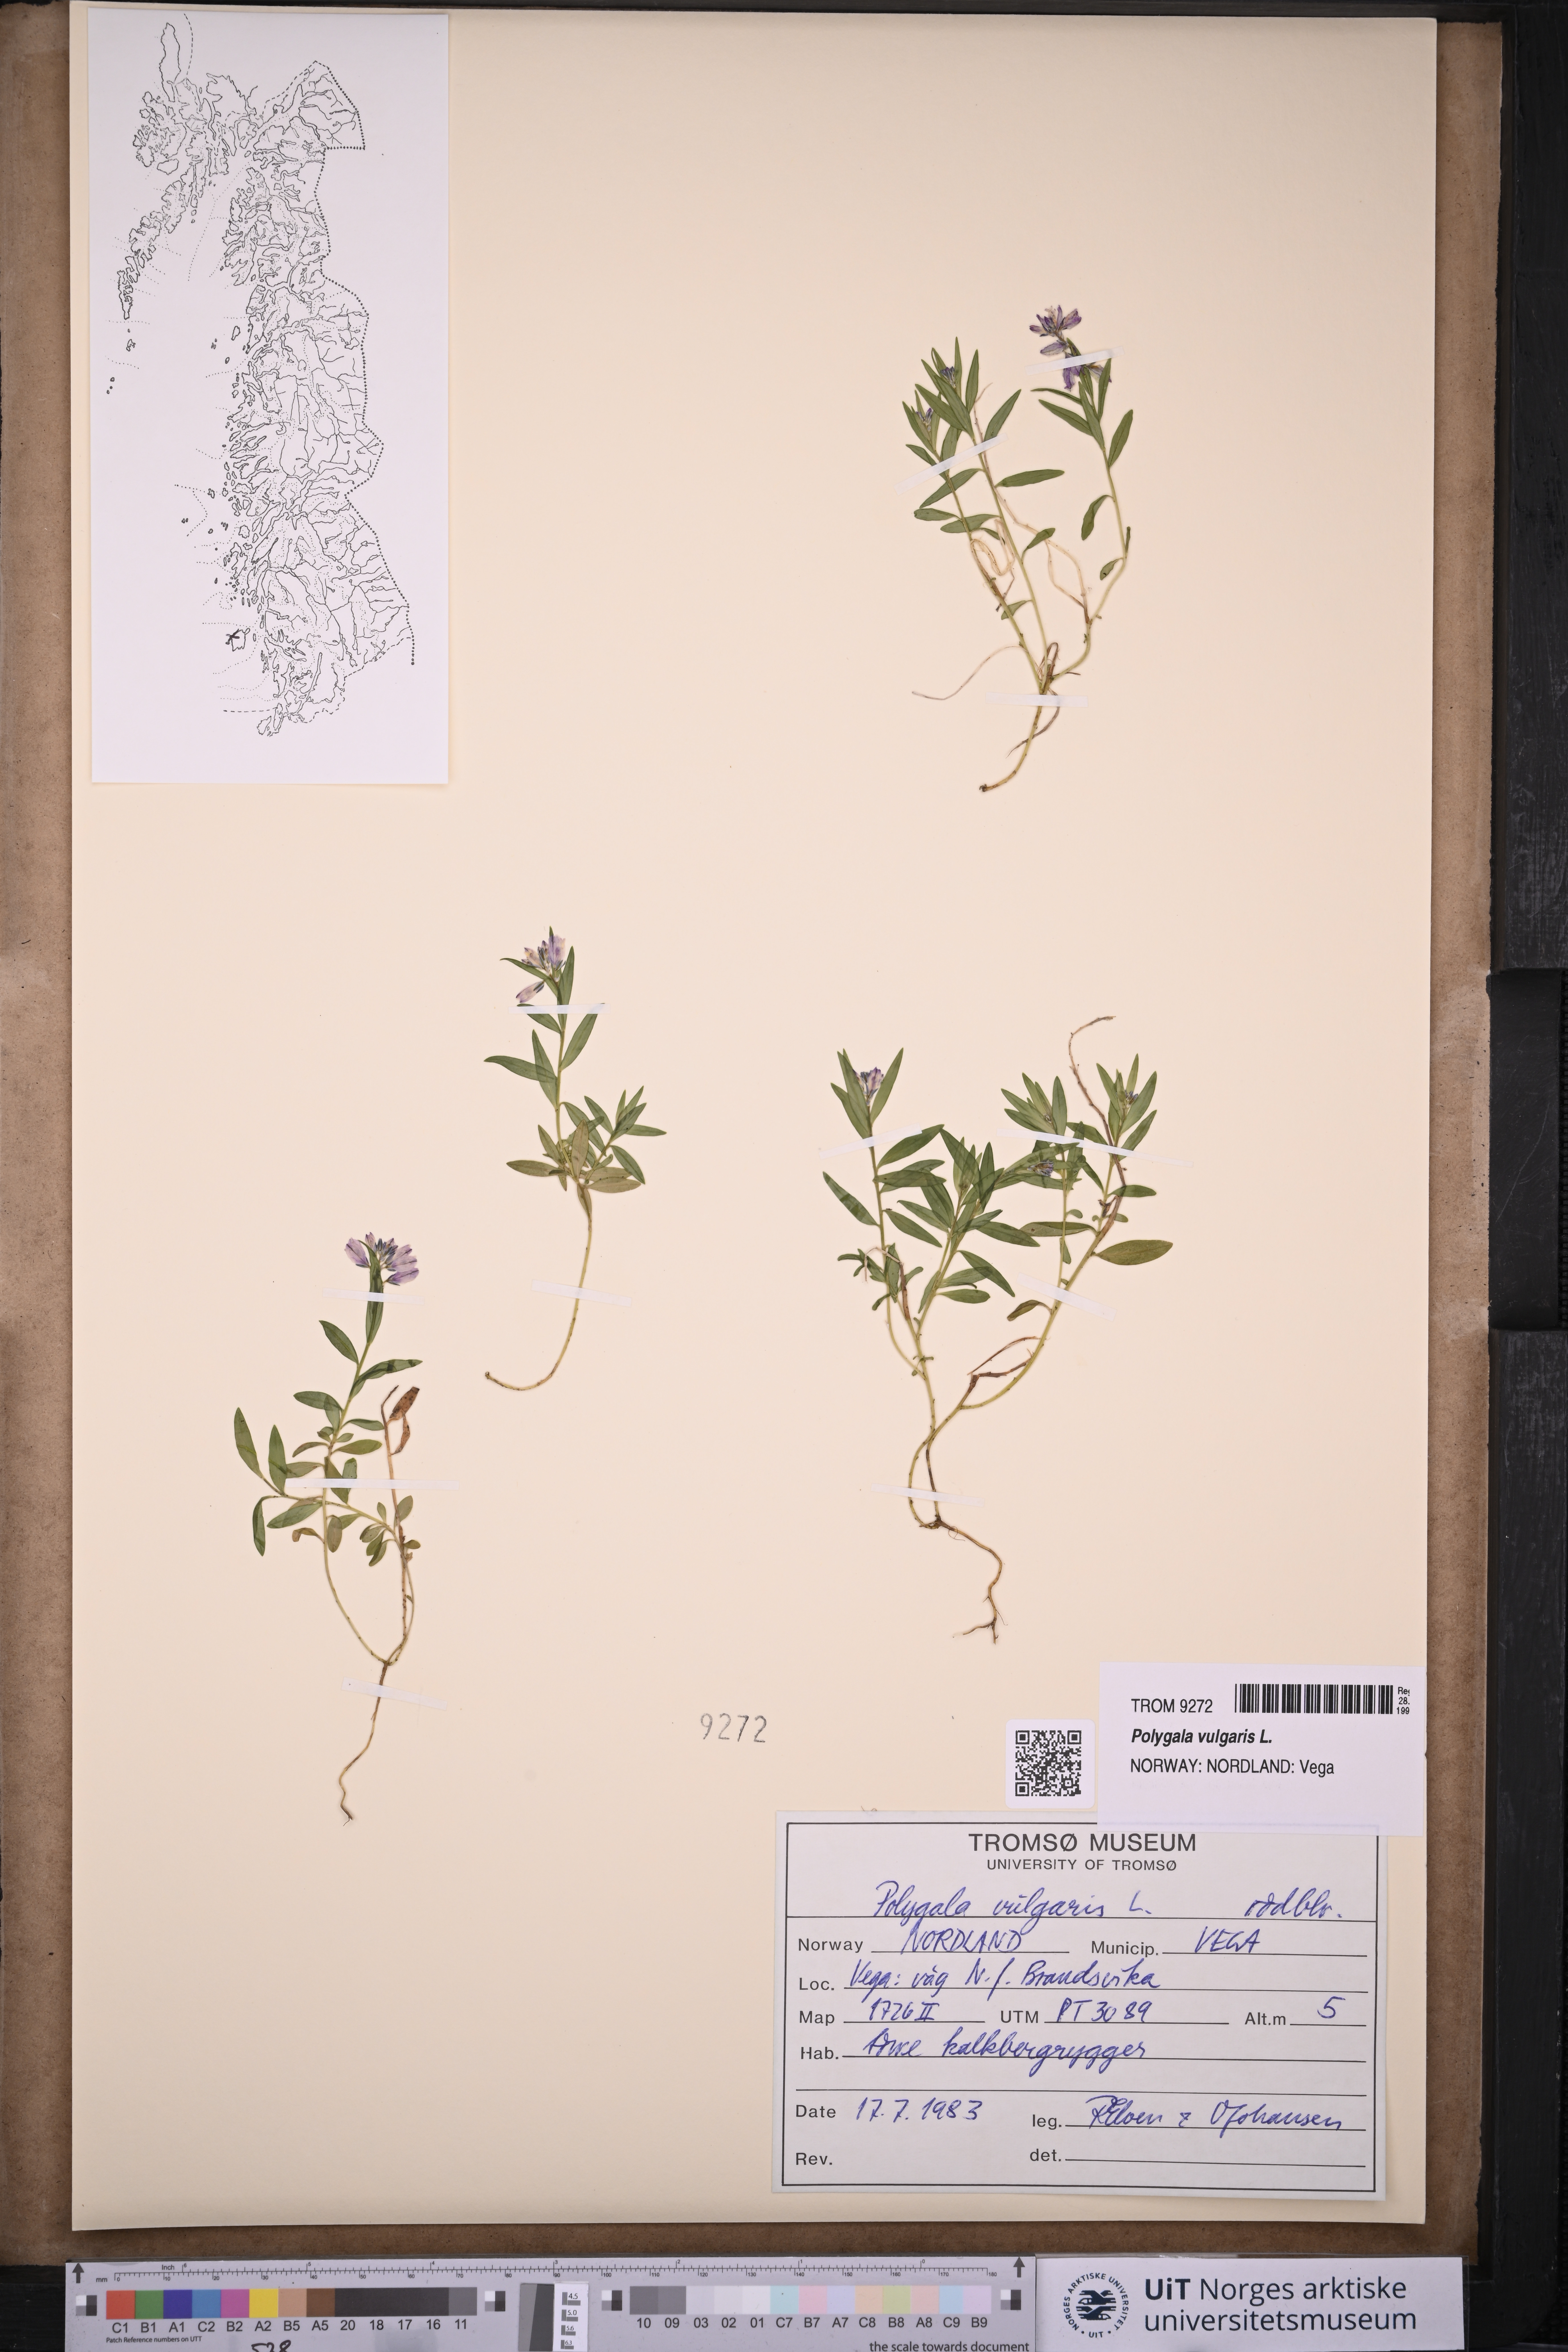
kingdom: Plantae
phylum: Tracheophyta
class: Magnoliopsida
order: Fabales
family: Polygalaceae
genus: Polygala
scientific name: Polygala vulgaris
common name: Common milkwort
